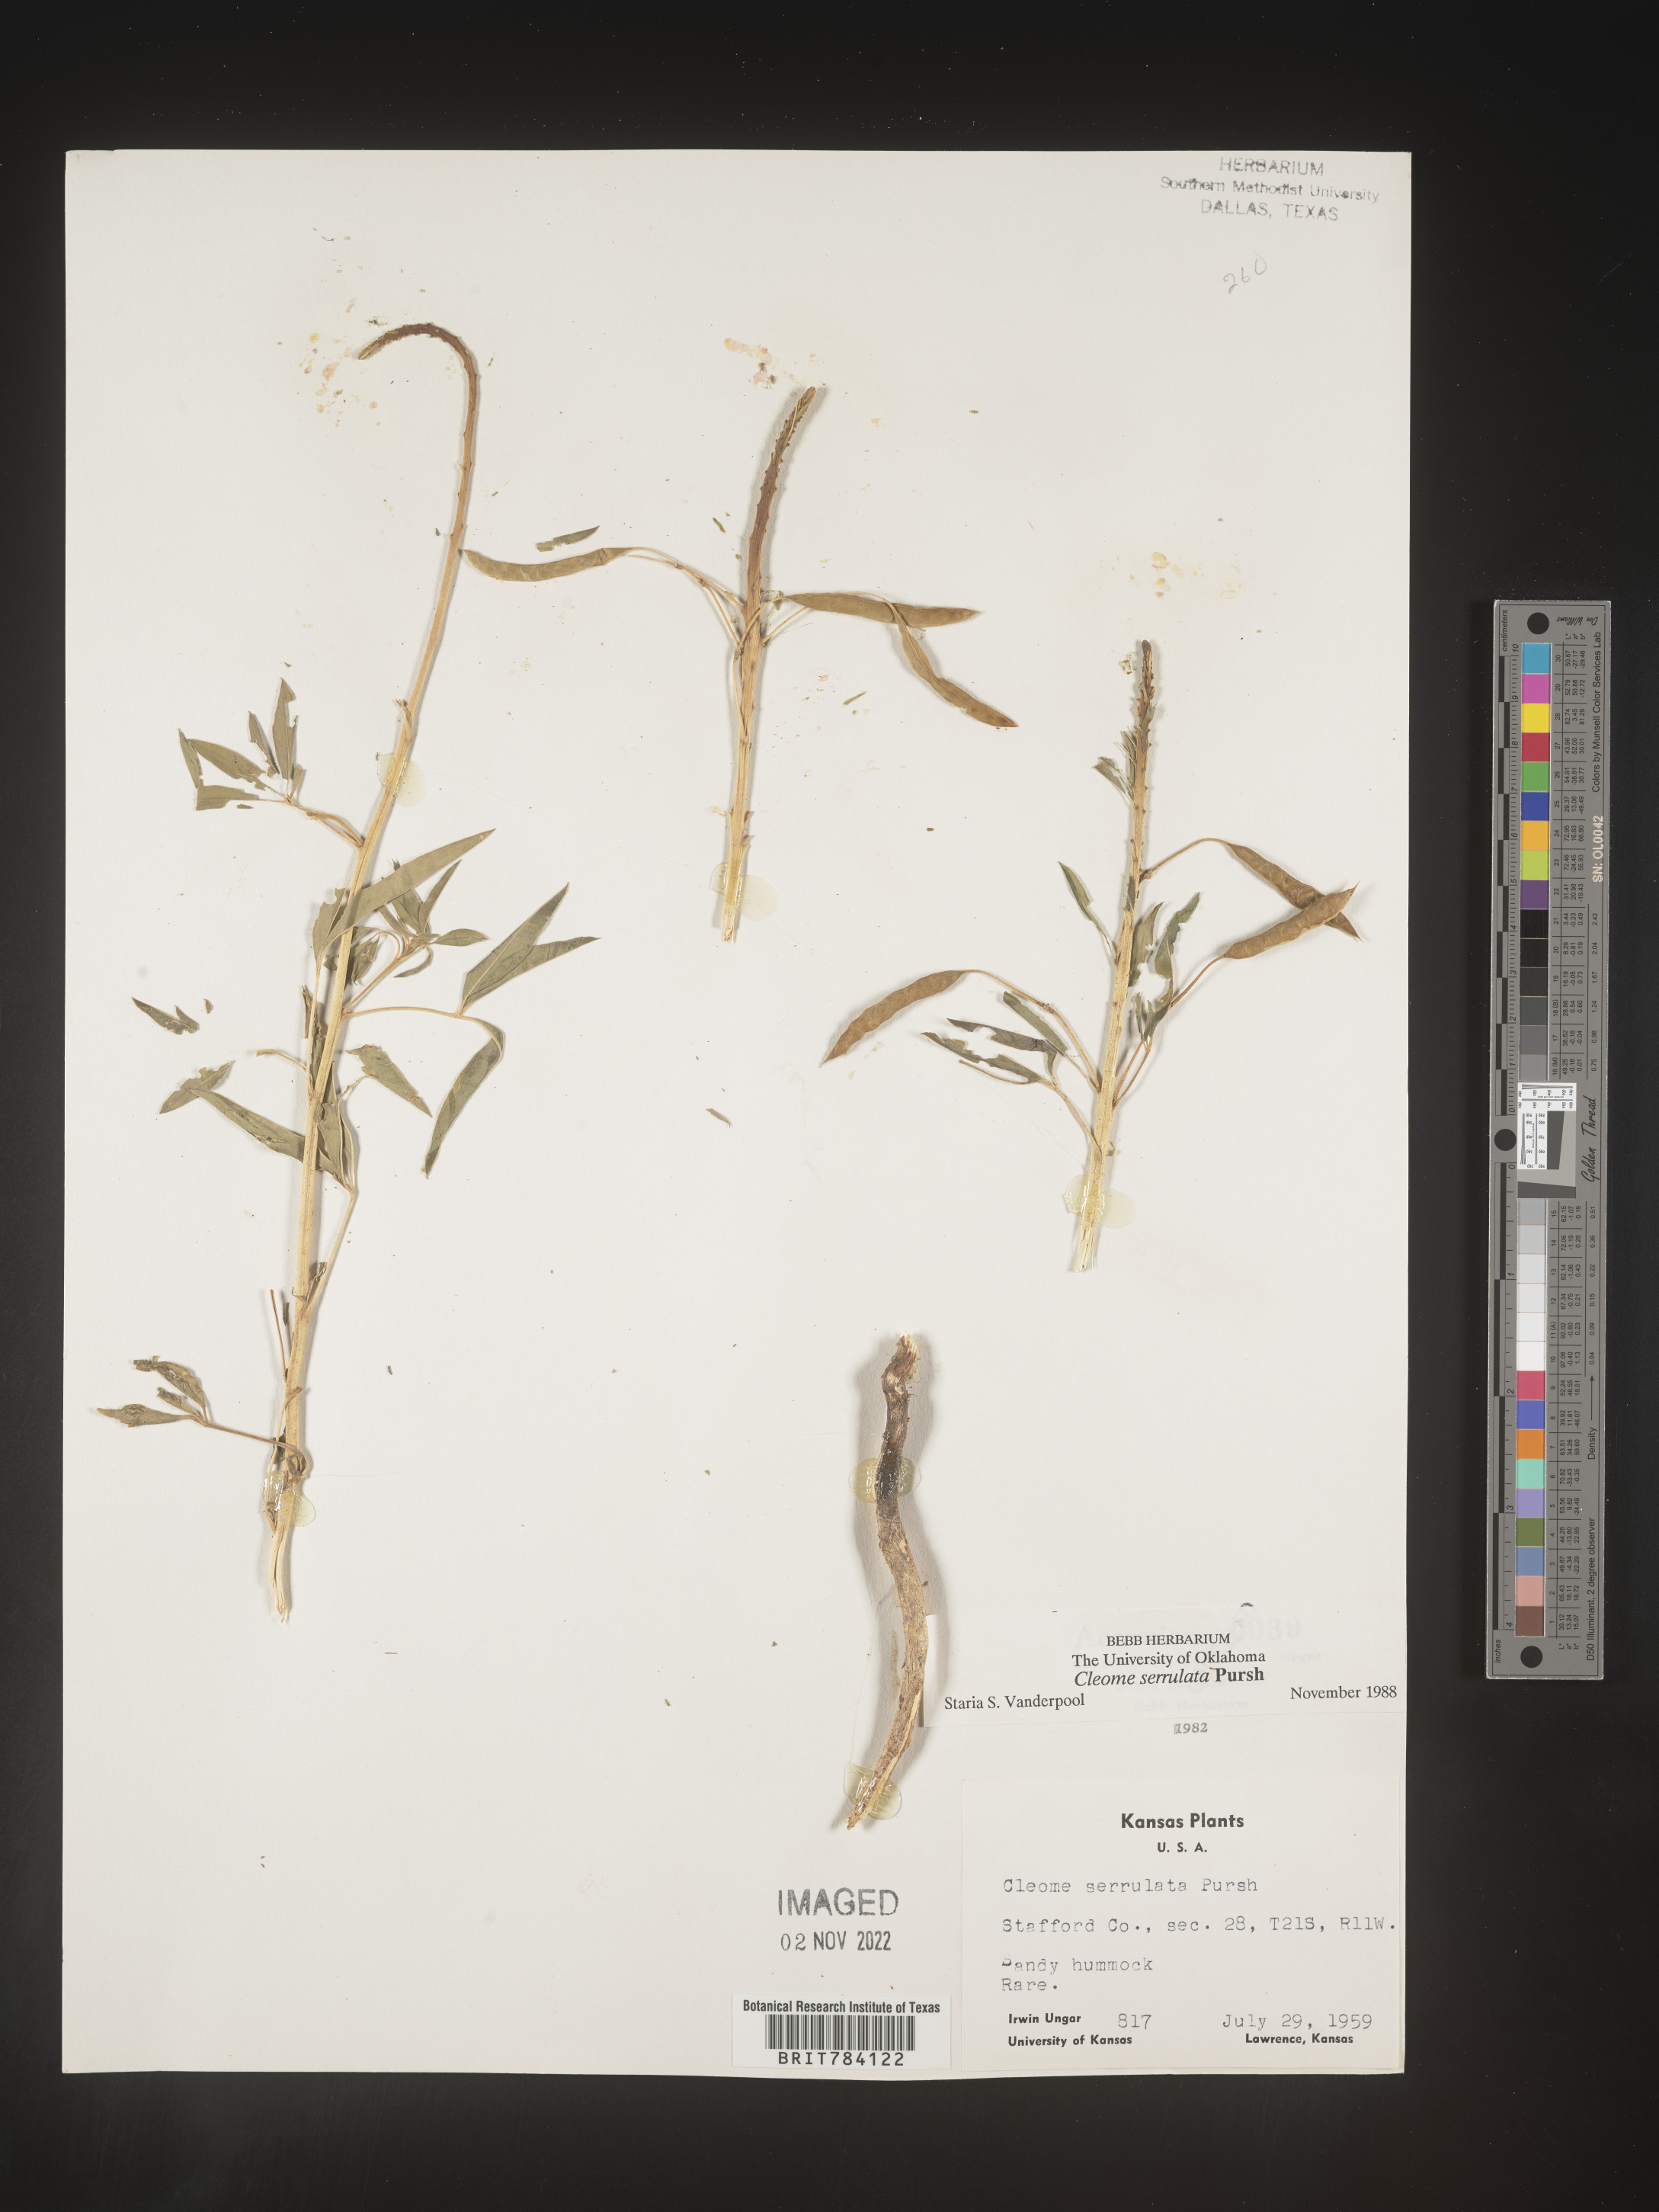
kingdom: Plantae
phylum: Tracheophyta
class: Magnoliopsida
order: Brassicales
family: Cleomaceae
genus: Cleomella
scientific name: Cleomella serrulata
